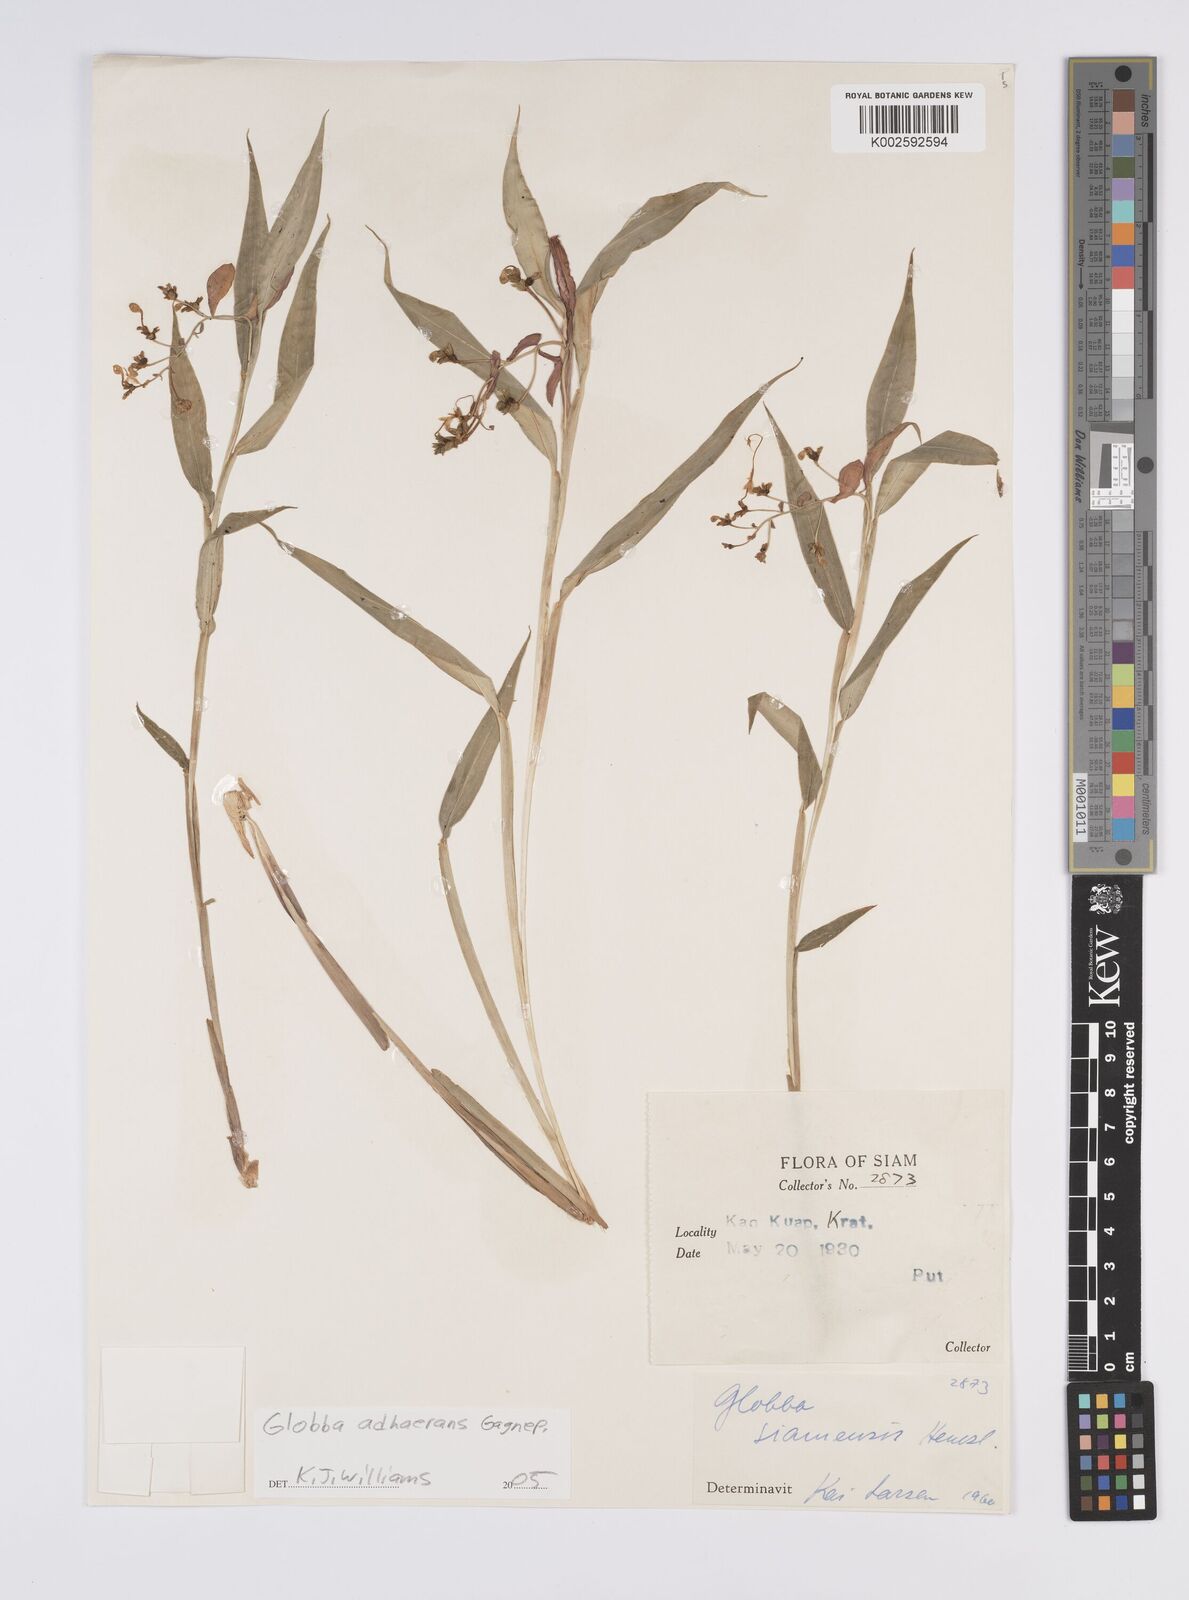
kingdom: Plantae
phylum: Tracheophyta
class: Liliopsida
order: Zingiberales
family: Zingiberaceae
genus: Globba
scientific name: Globba adhaerens
